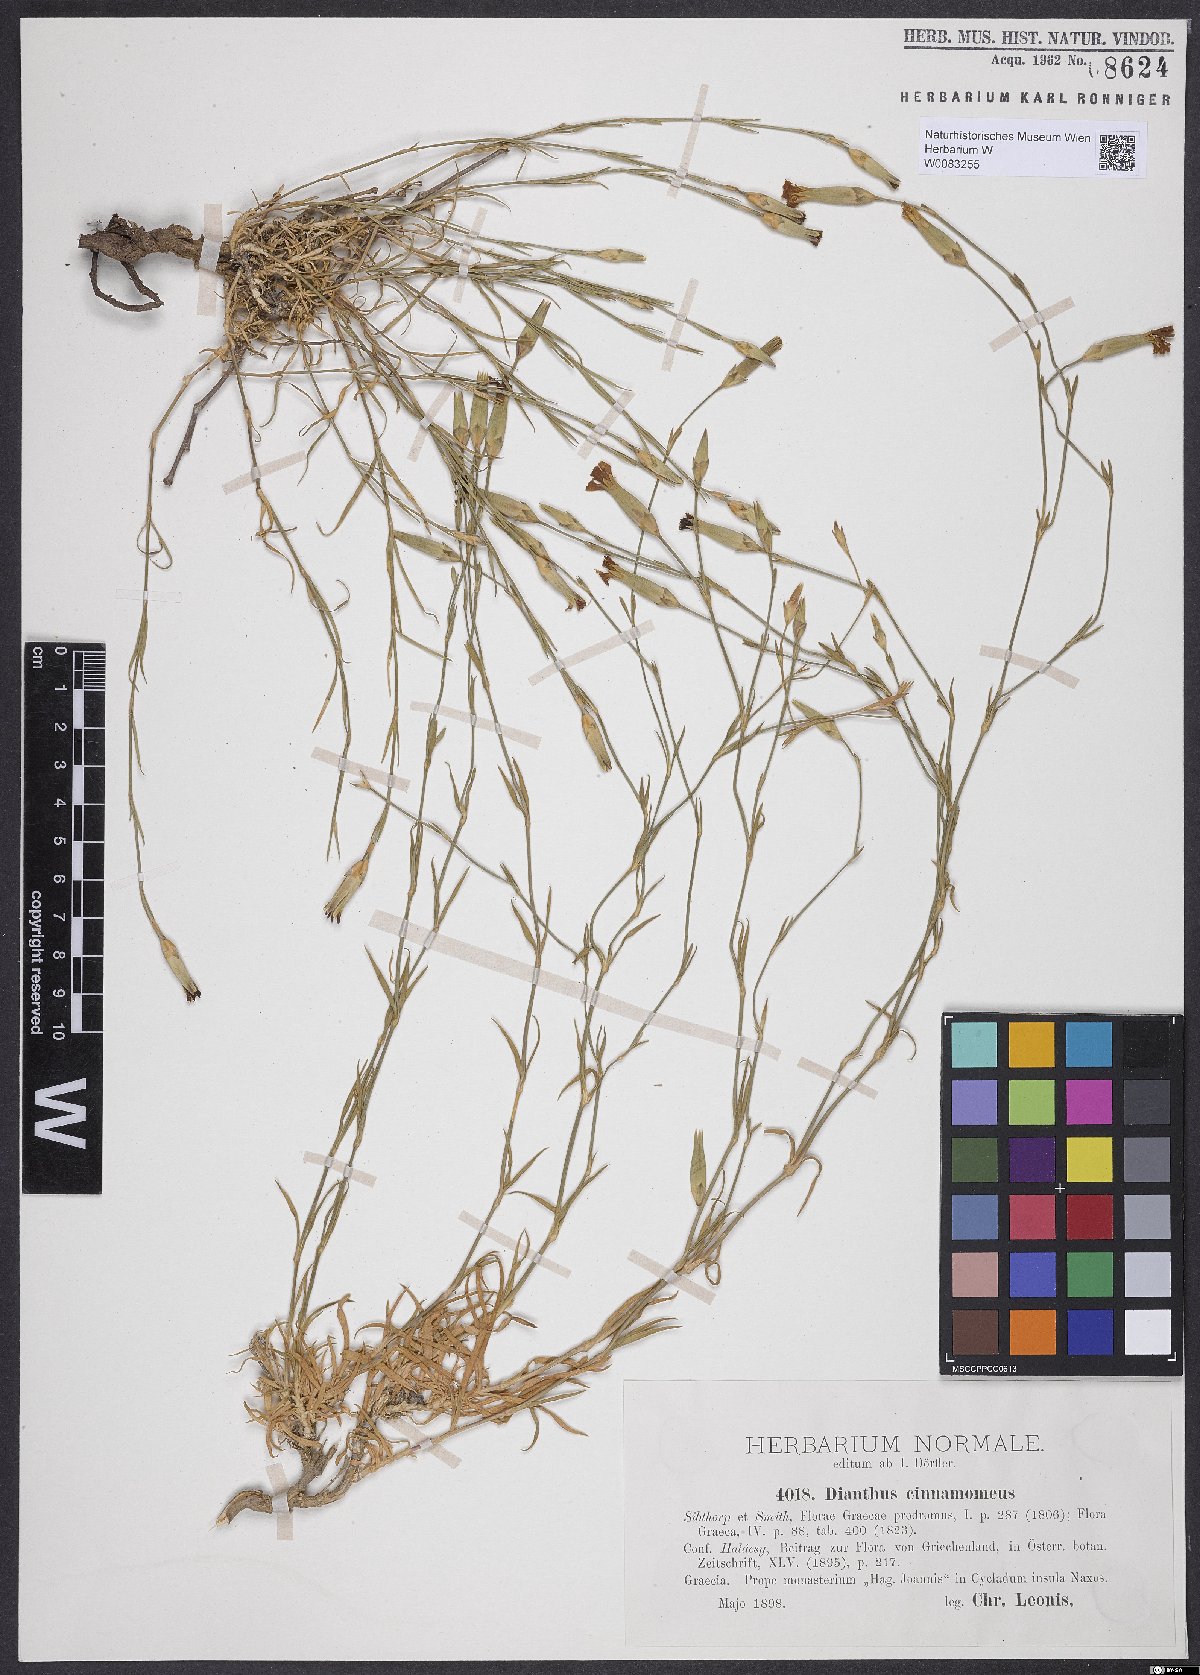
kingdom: Plantae
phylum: Tracheophyta
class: Magnoliopsida
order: Caryophyllales
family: Caryophyllaceae
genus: Dianthus
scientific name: Dianthus cinnamomeus
